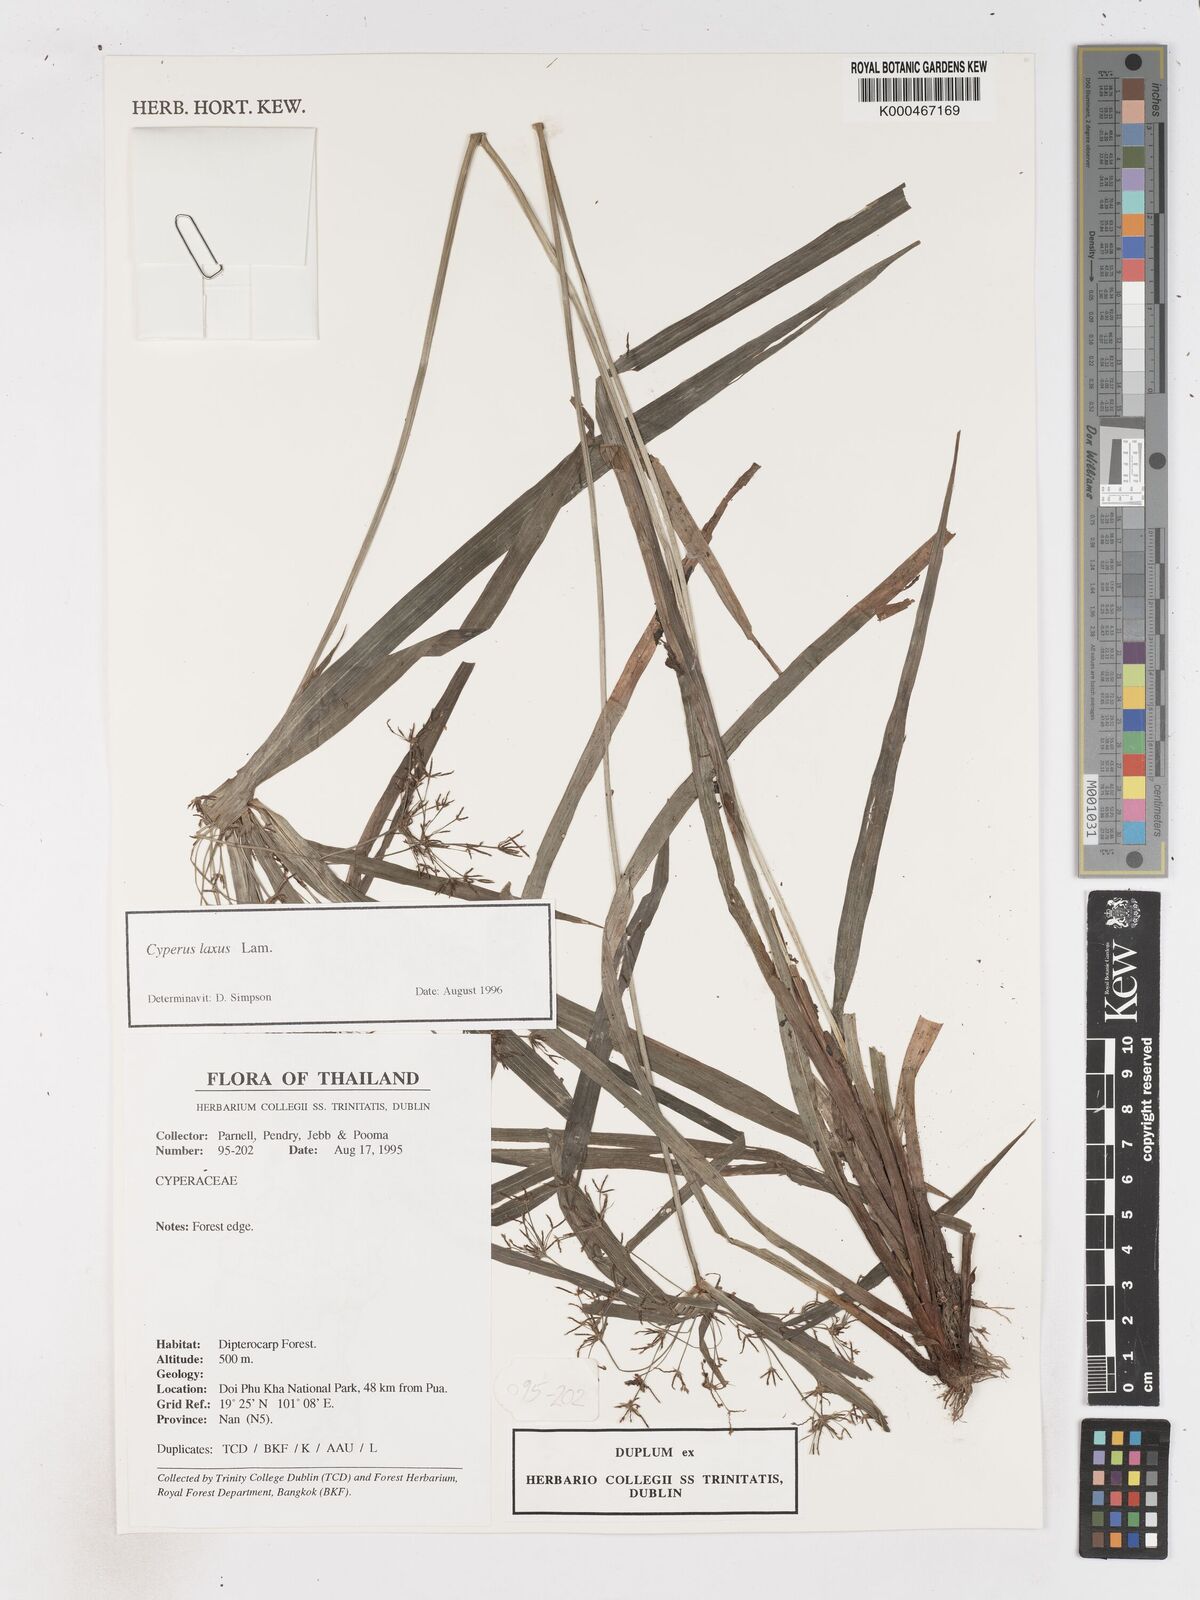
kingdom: Plantae
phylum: Tracheophyta
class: Liliopsida
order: Poales
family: Cyperaceae
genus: Cyperus
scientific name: Cyperus diffusus
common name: Dwarf umbrella grass
